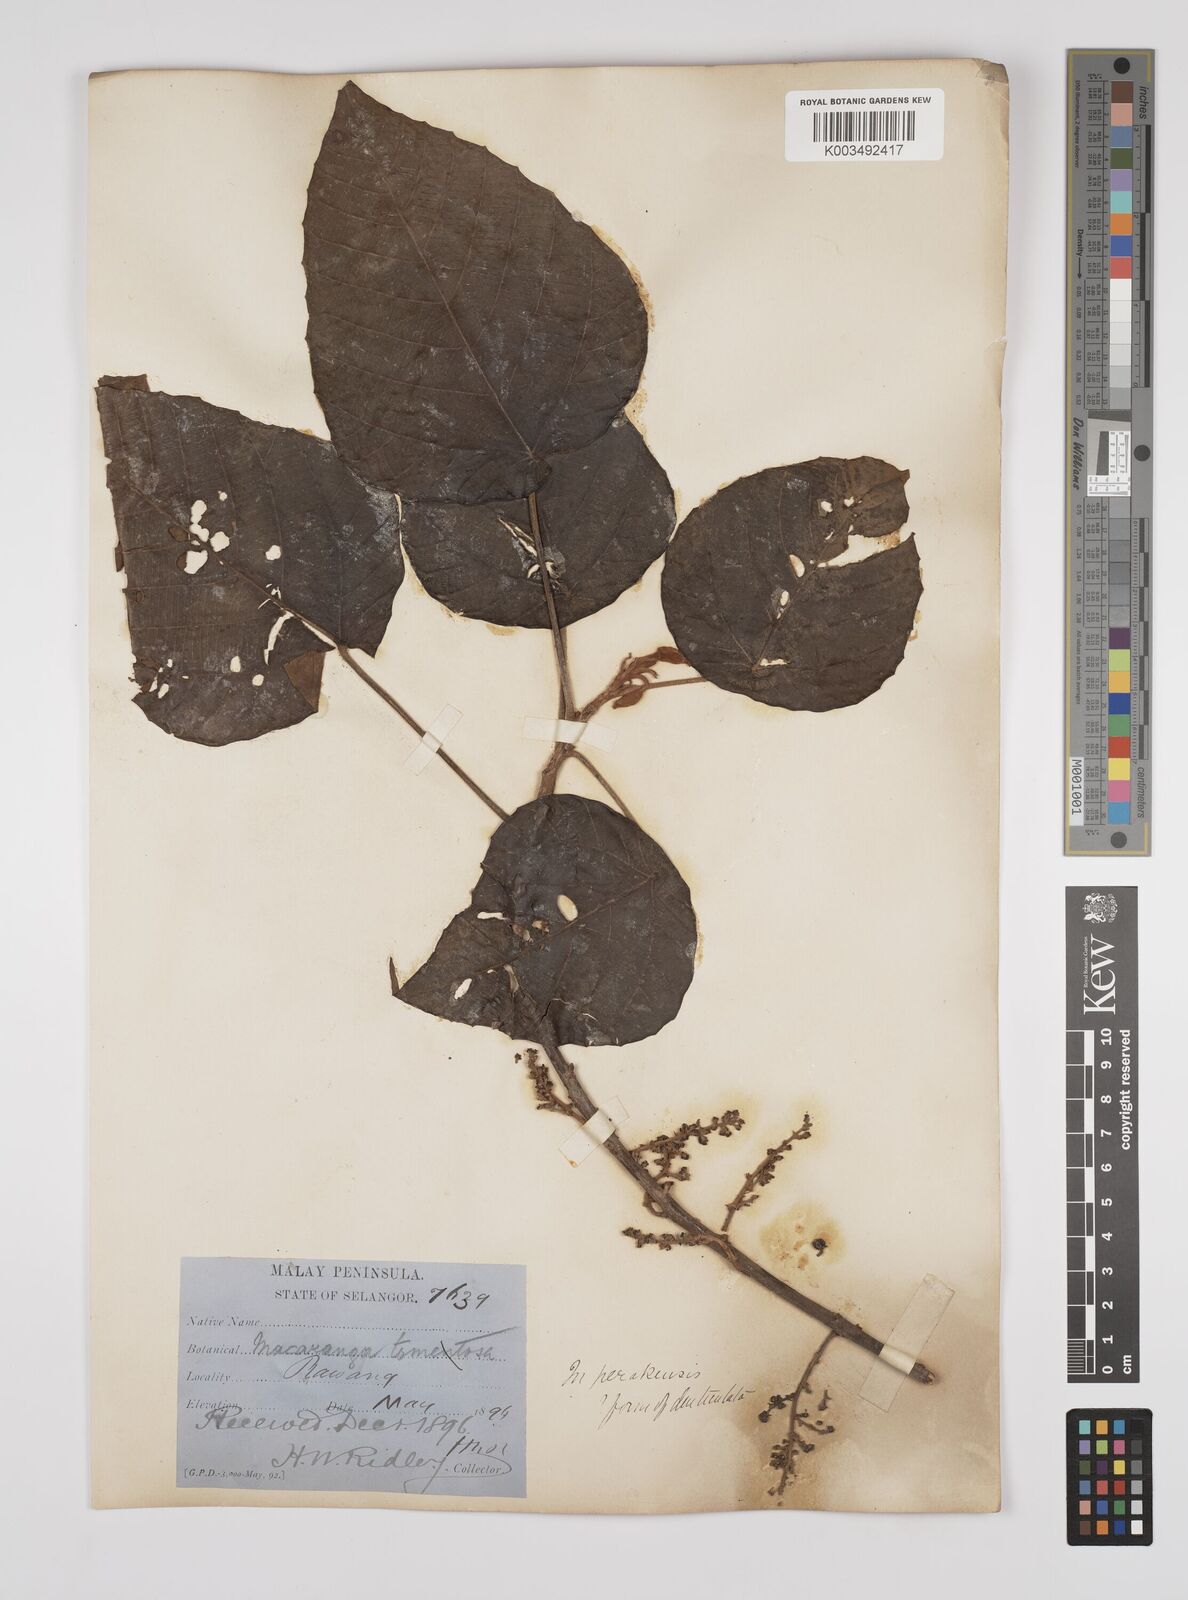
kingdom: Plantae
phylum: Tracheophyta
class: Magnoliopsida
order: Malpighiales
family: Euphorbiaceae
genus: Macaranga
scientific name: Macaranga denticulata
